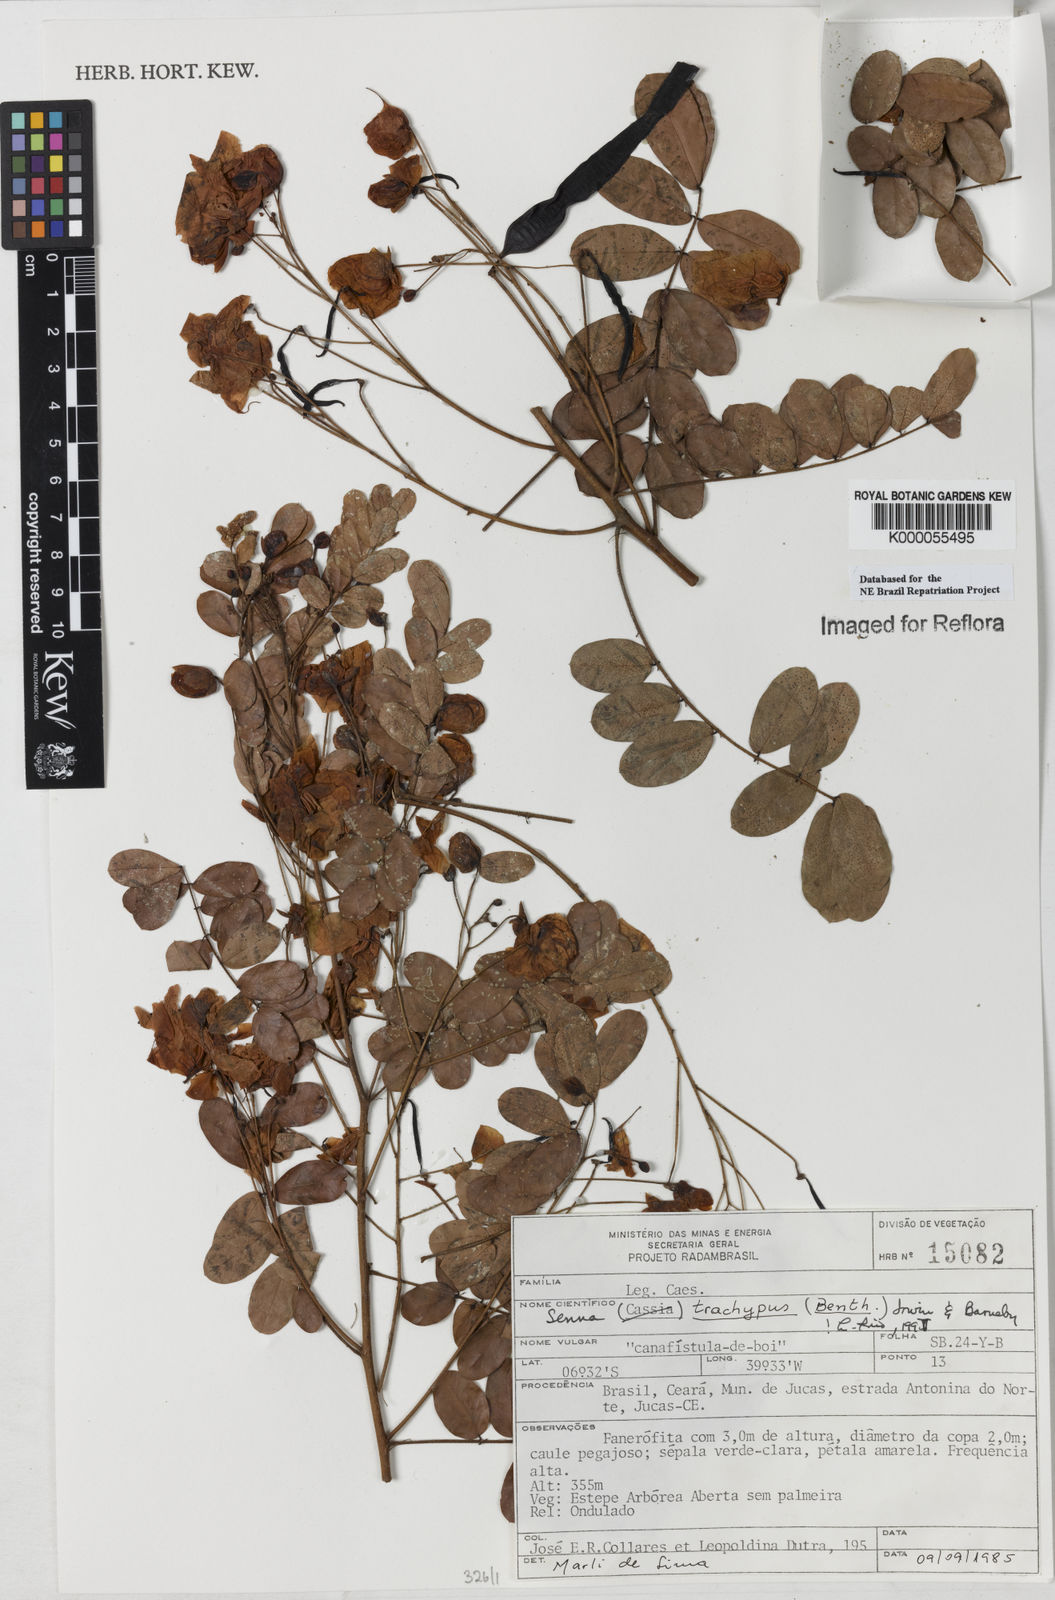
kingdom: Plantae
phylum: Tracheophyta
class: Magnoliopsida
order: Fabales
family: Fabaceae
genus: Senna
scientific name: Senna trachypus
